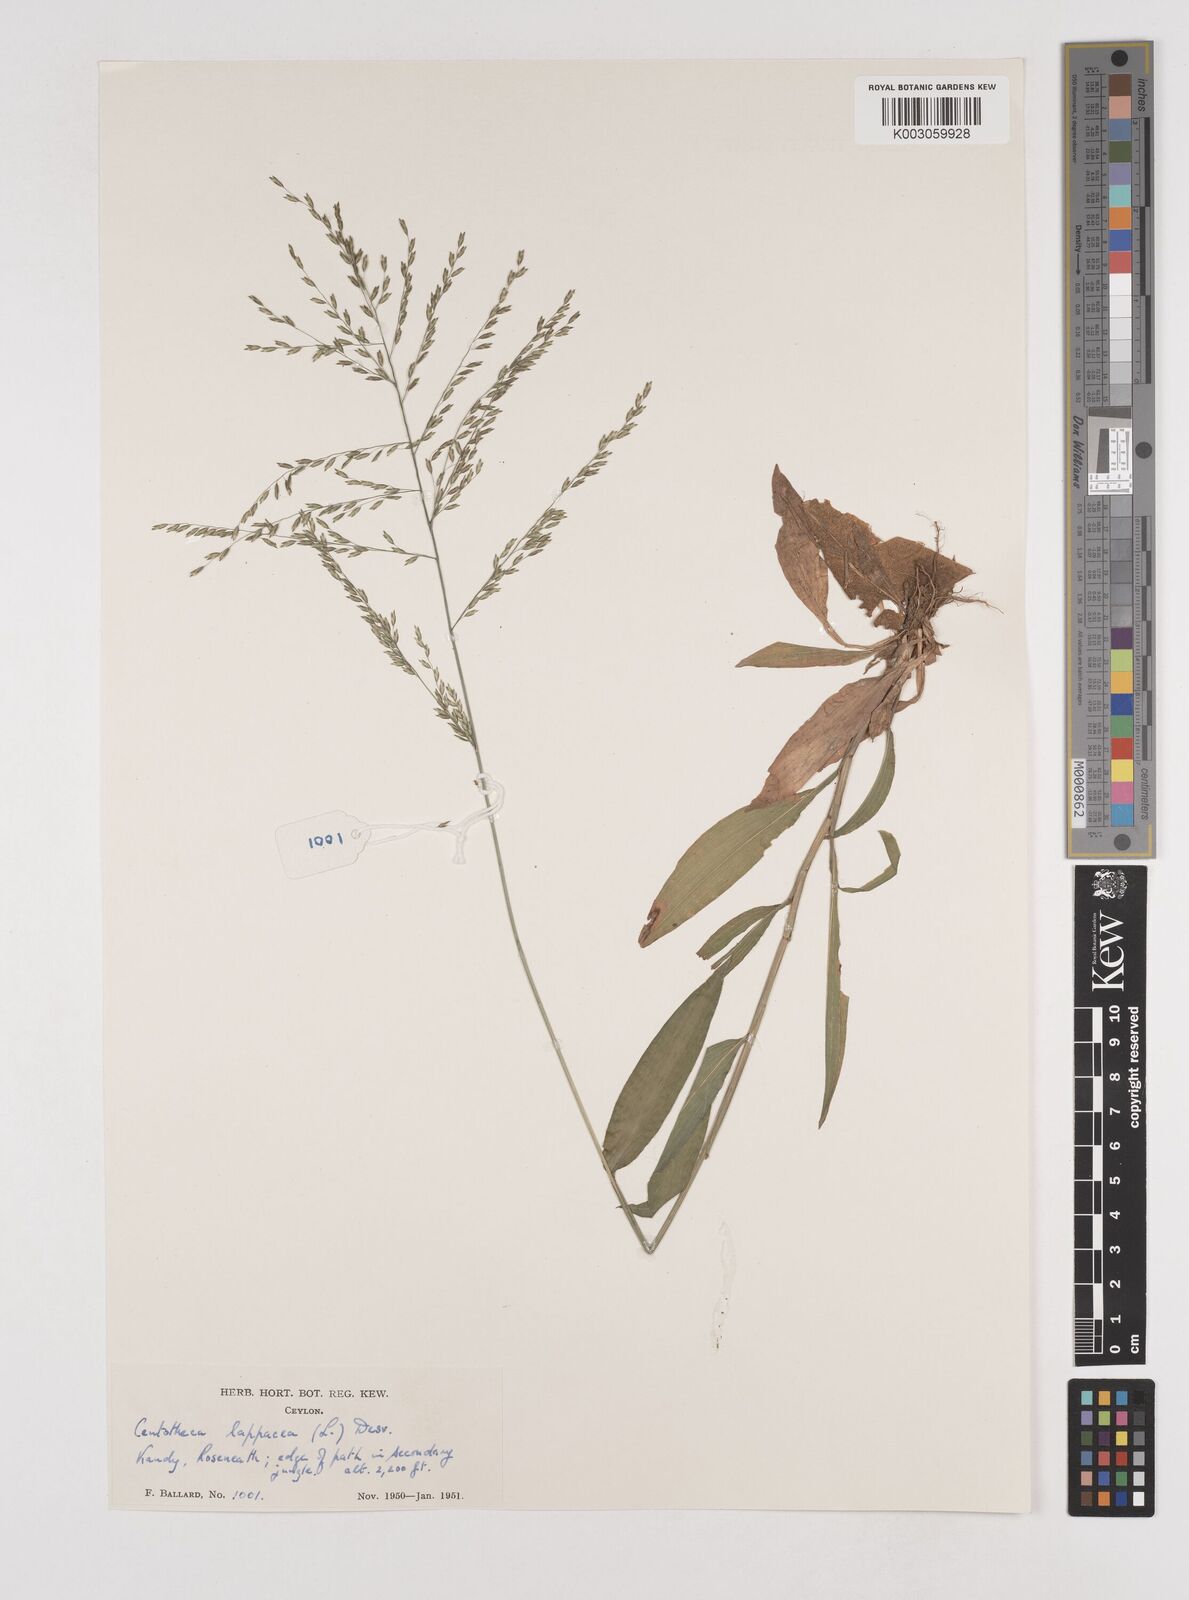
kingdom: Plantae
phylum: Tracheophyta
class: Liliopsida
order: Poales
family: Poaceae
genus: Centotheca
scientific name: Centotheca lappacea
